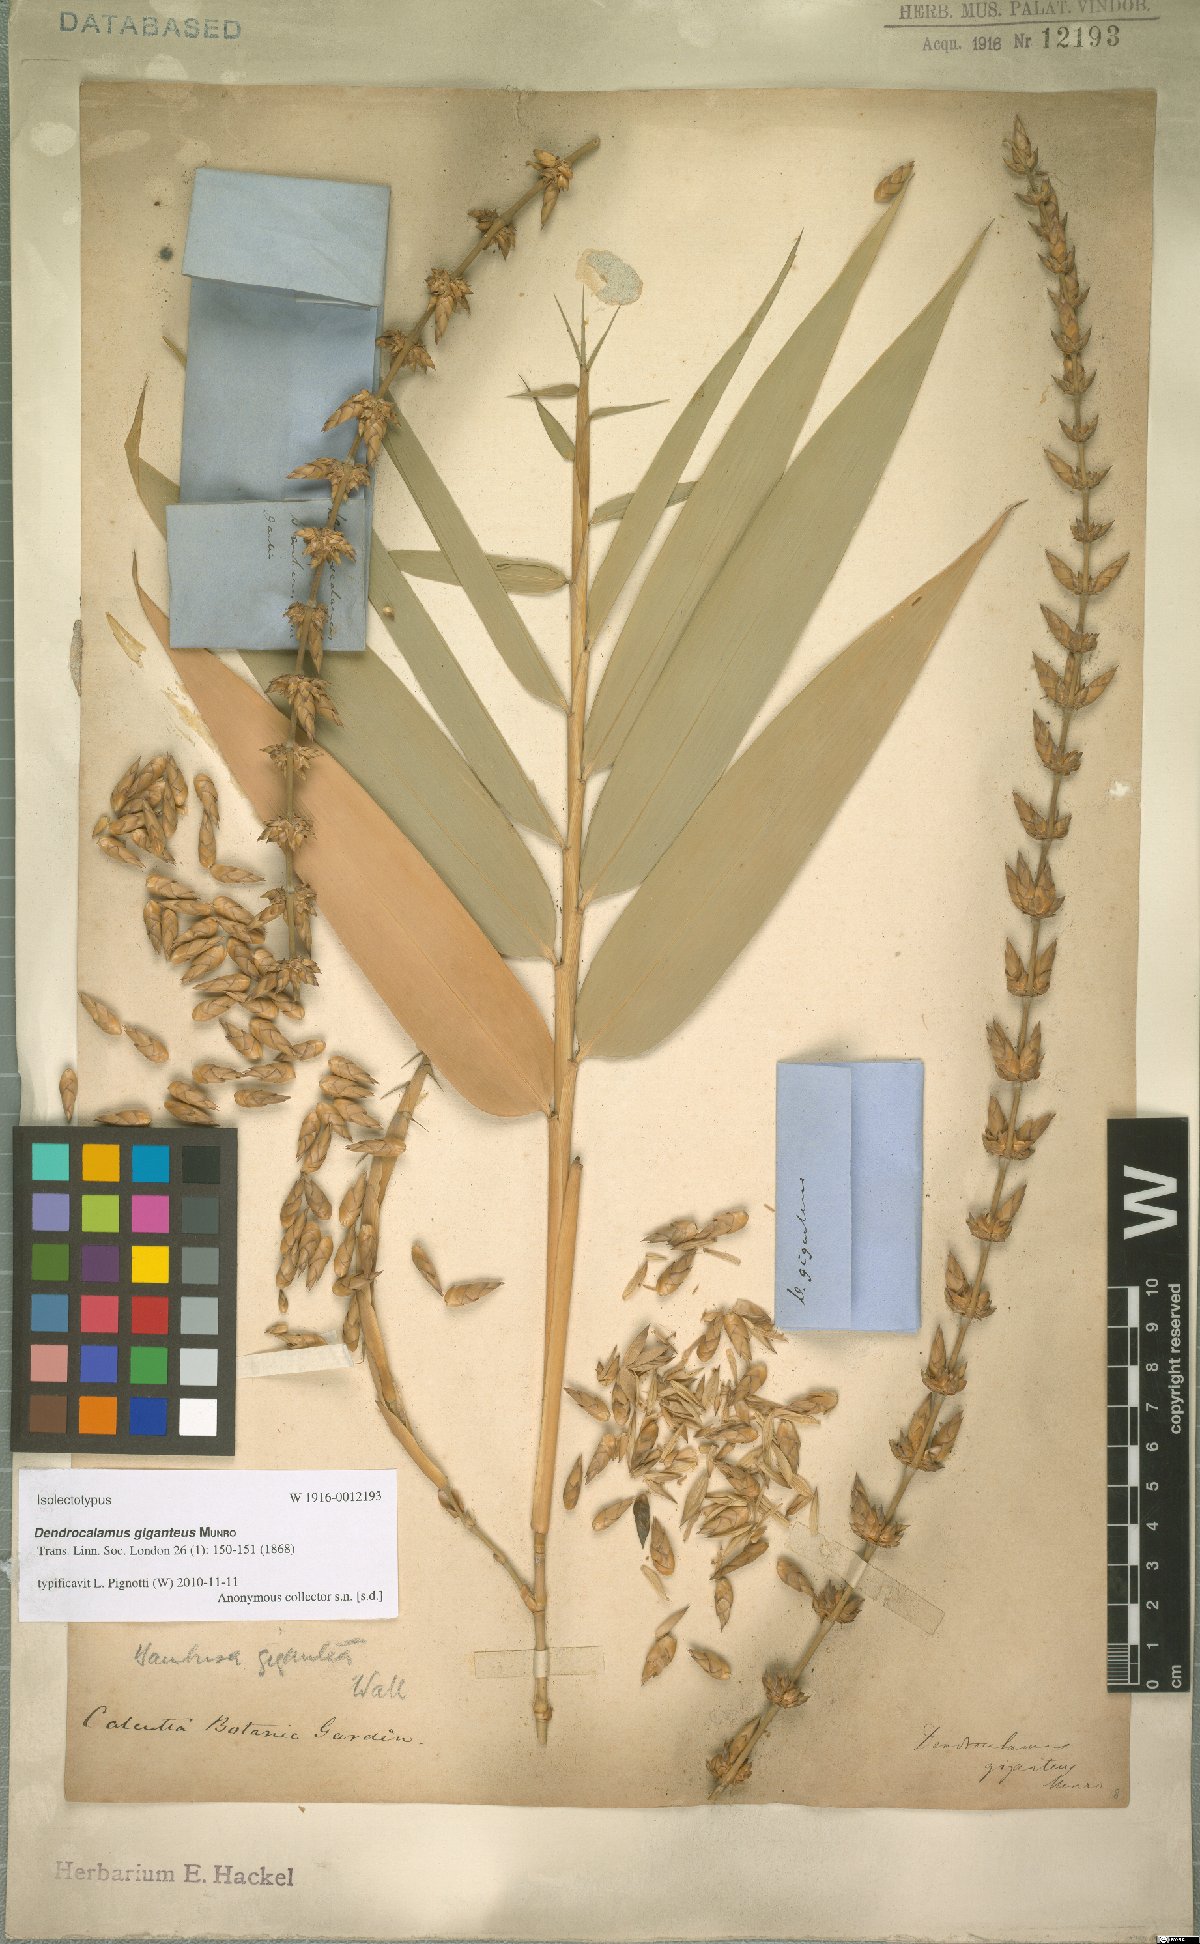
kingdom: Plantae
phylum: Tracheophyta
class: Liliopsida
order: Poales
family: Poaceae
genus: Dendrocalamus
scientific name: Dendrocalamus giganteus
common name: Giant bamboo
